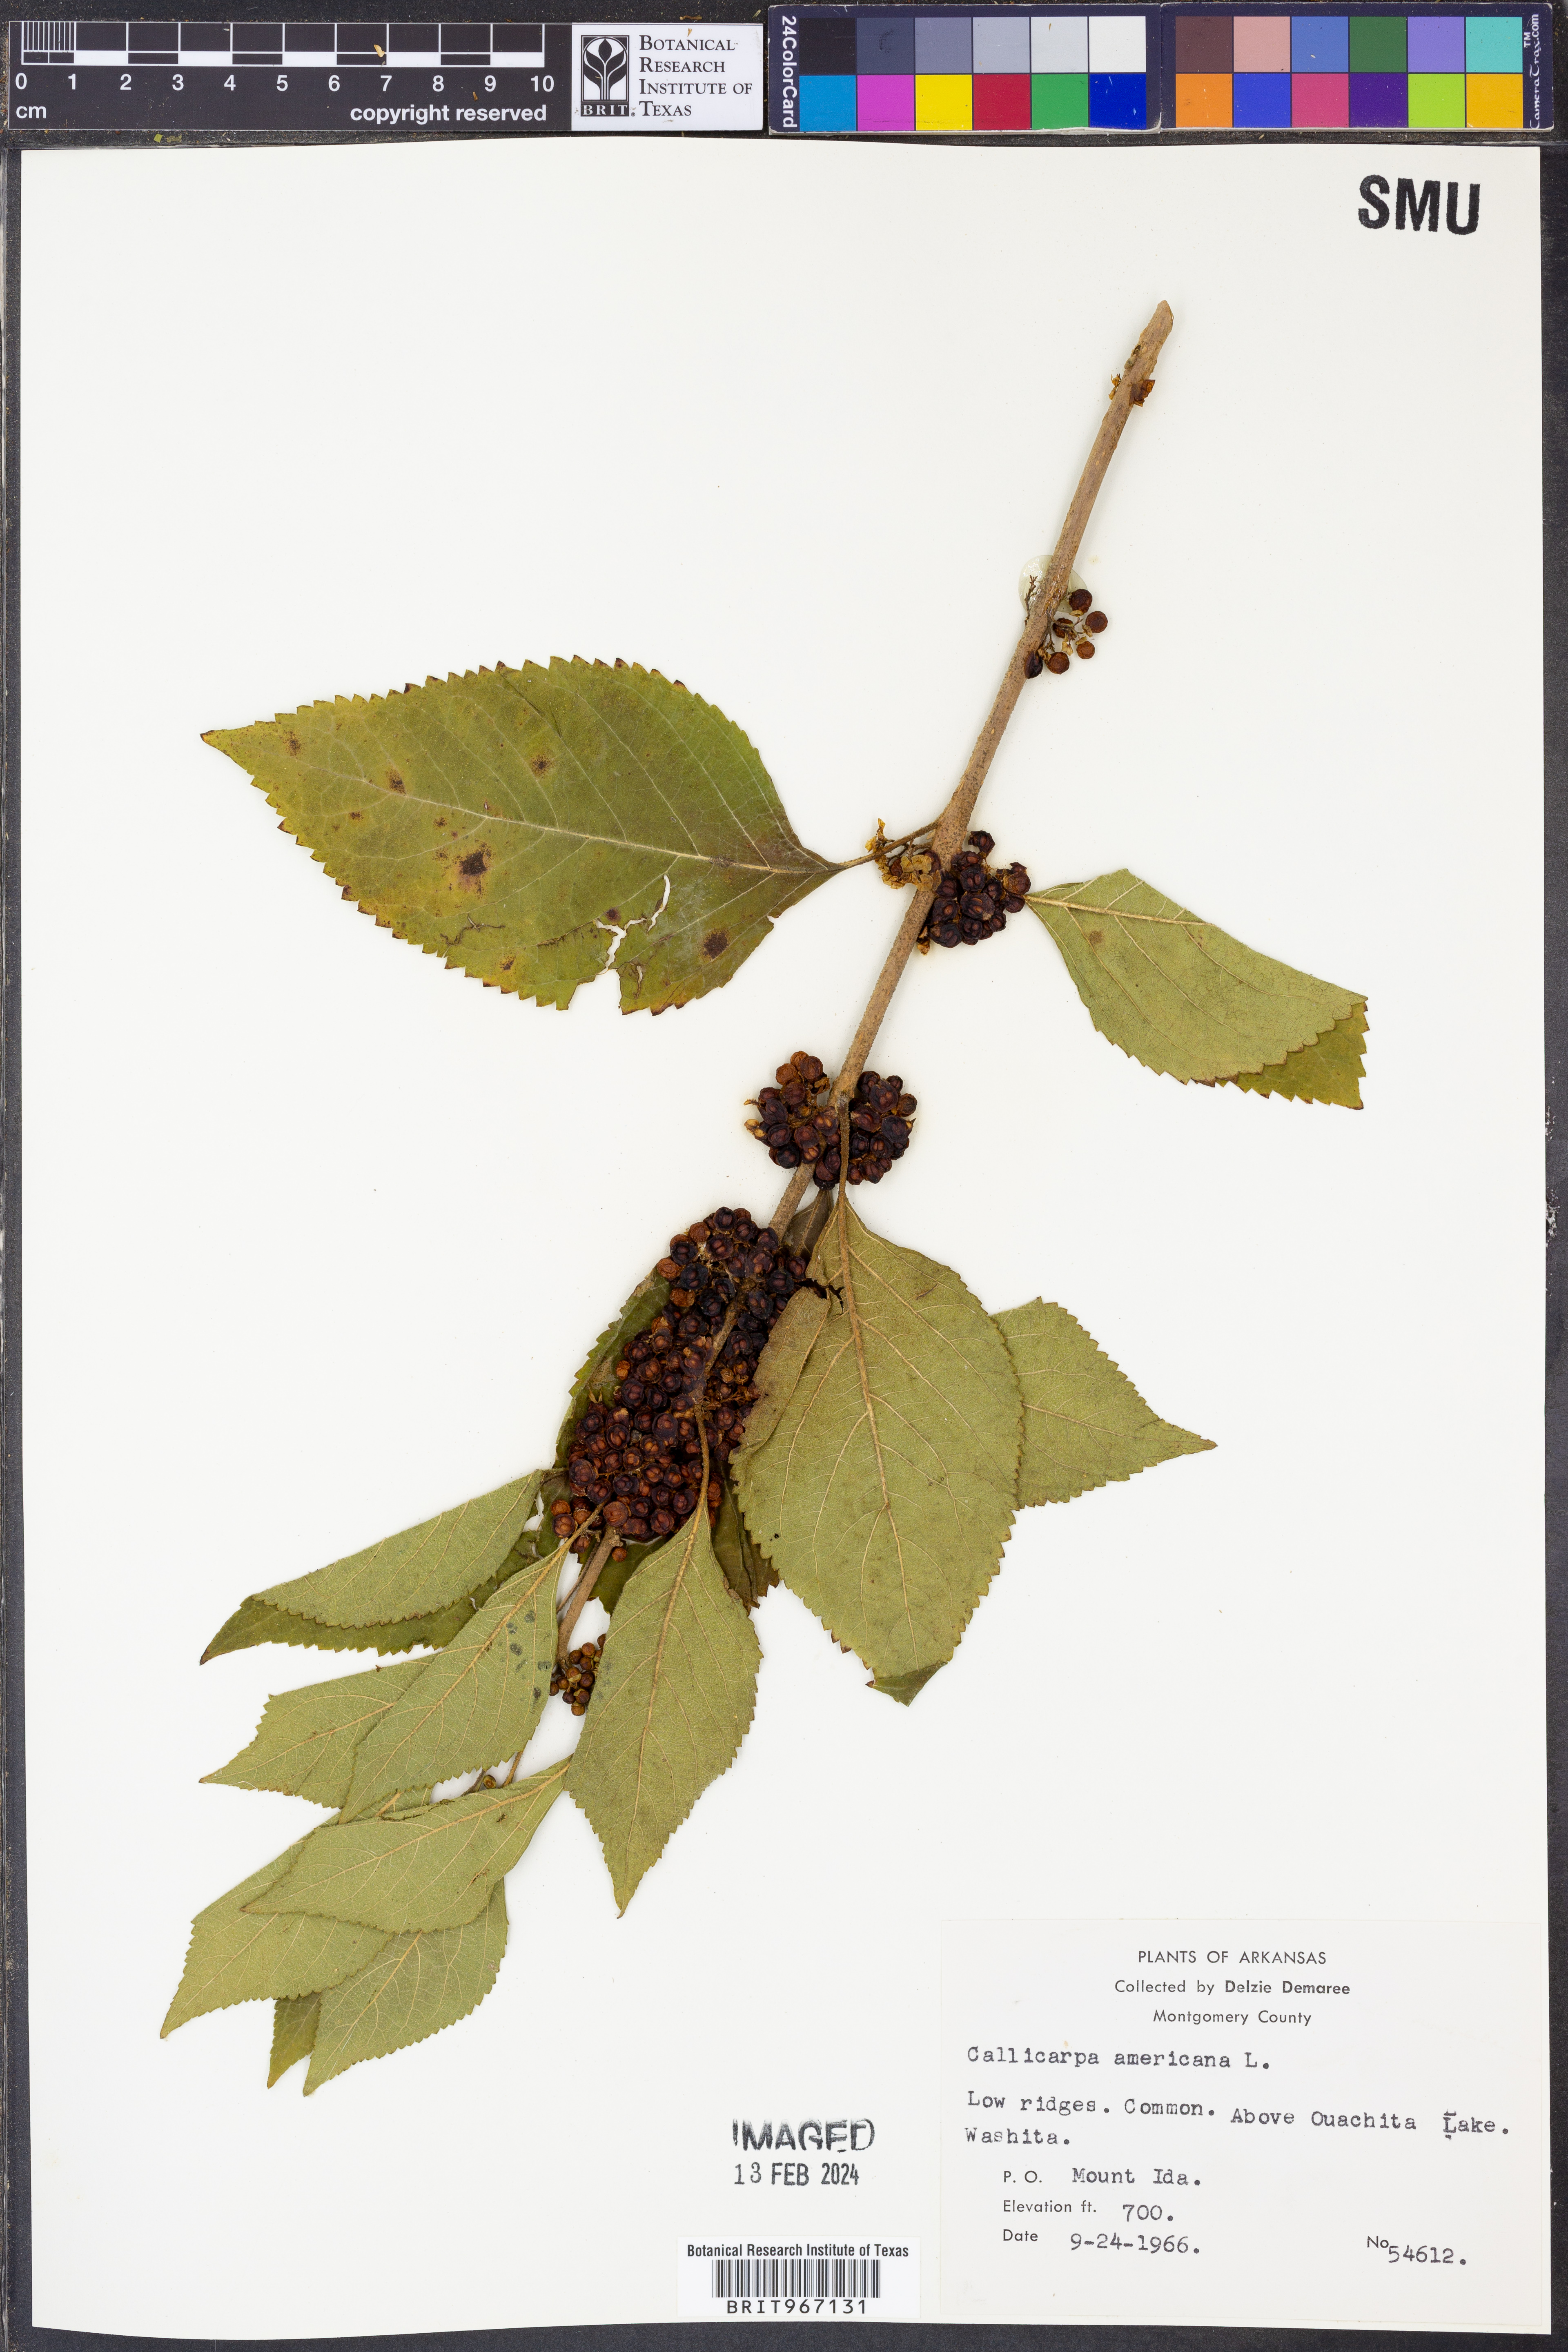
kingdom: Plantae
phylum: Tracheophyta
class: Magnoliopsida
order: Lamiales
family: Lamiaceae
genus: Callicarpa
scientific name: Callicarpa americana
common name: American beautyberry
